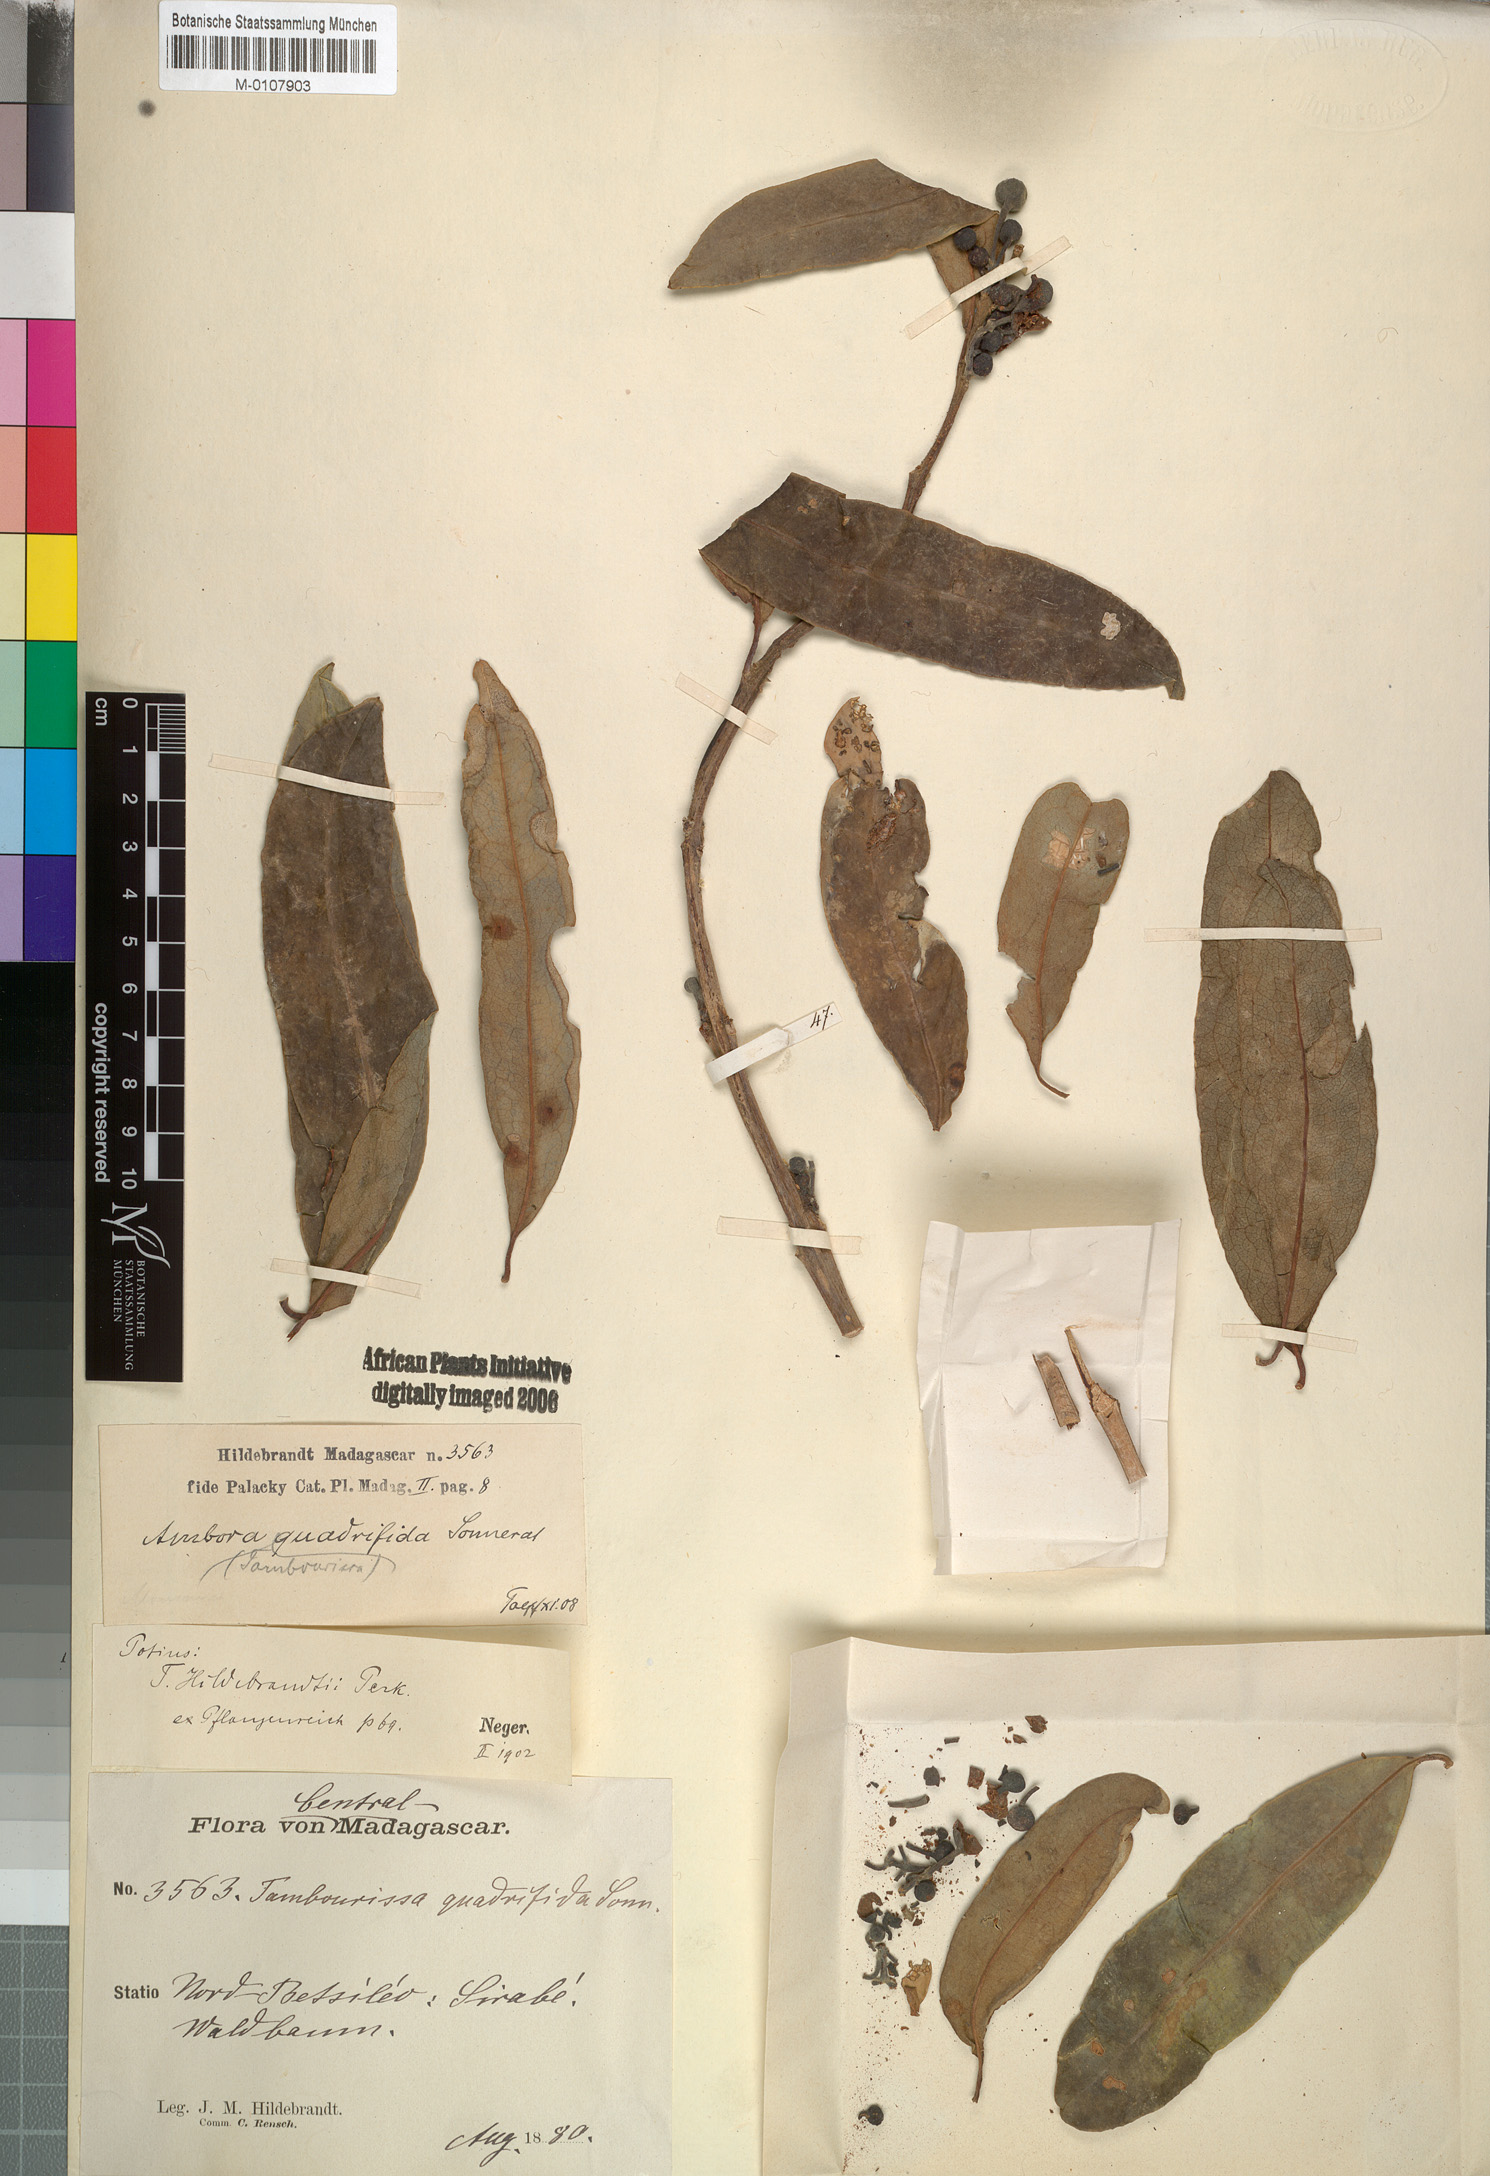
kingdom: Plantae
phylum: Tracheophyta
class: Magnoliopsida
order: Laurales
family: Monimiaceae
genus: Tambourissa
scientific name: Tambourissa quadrifida
